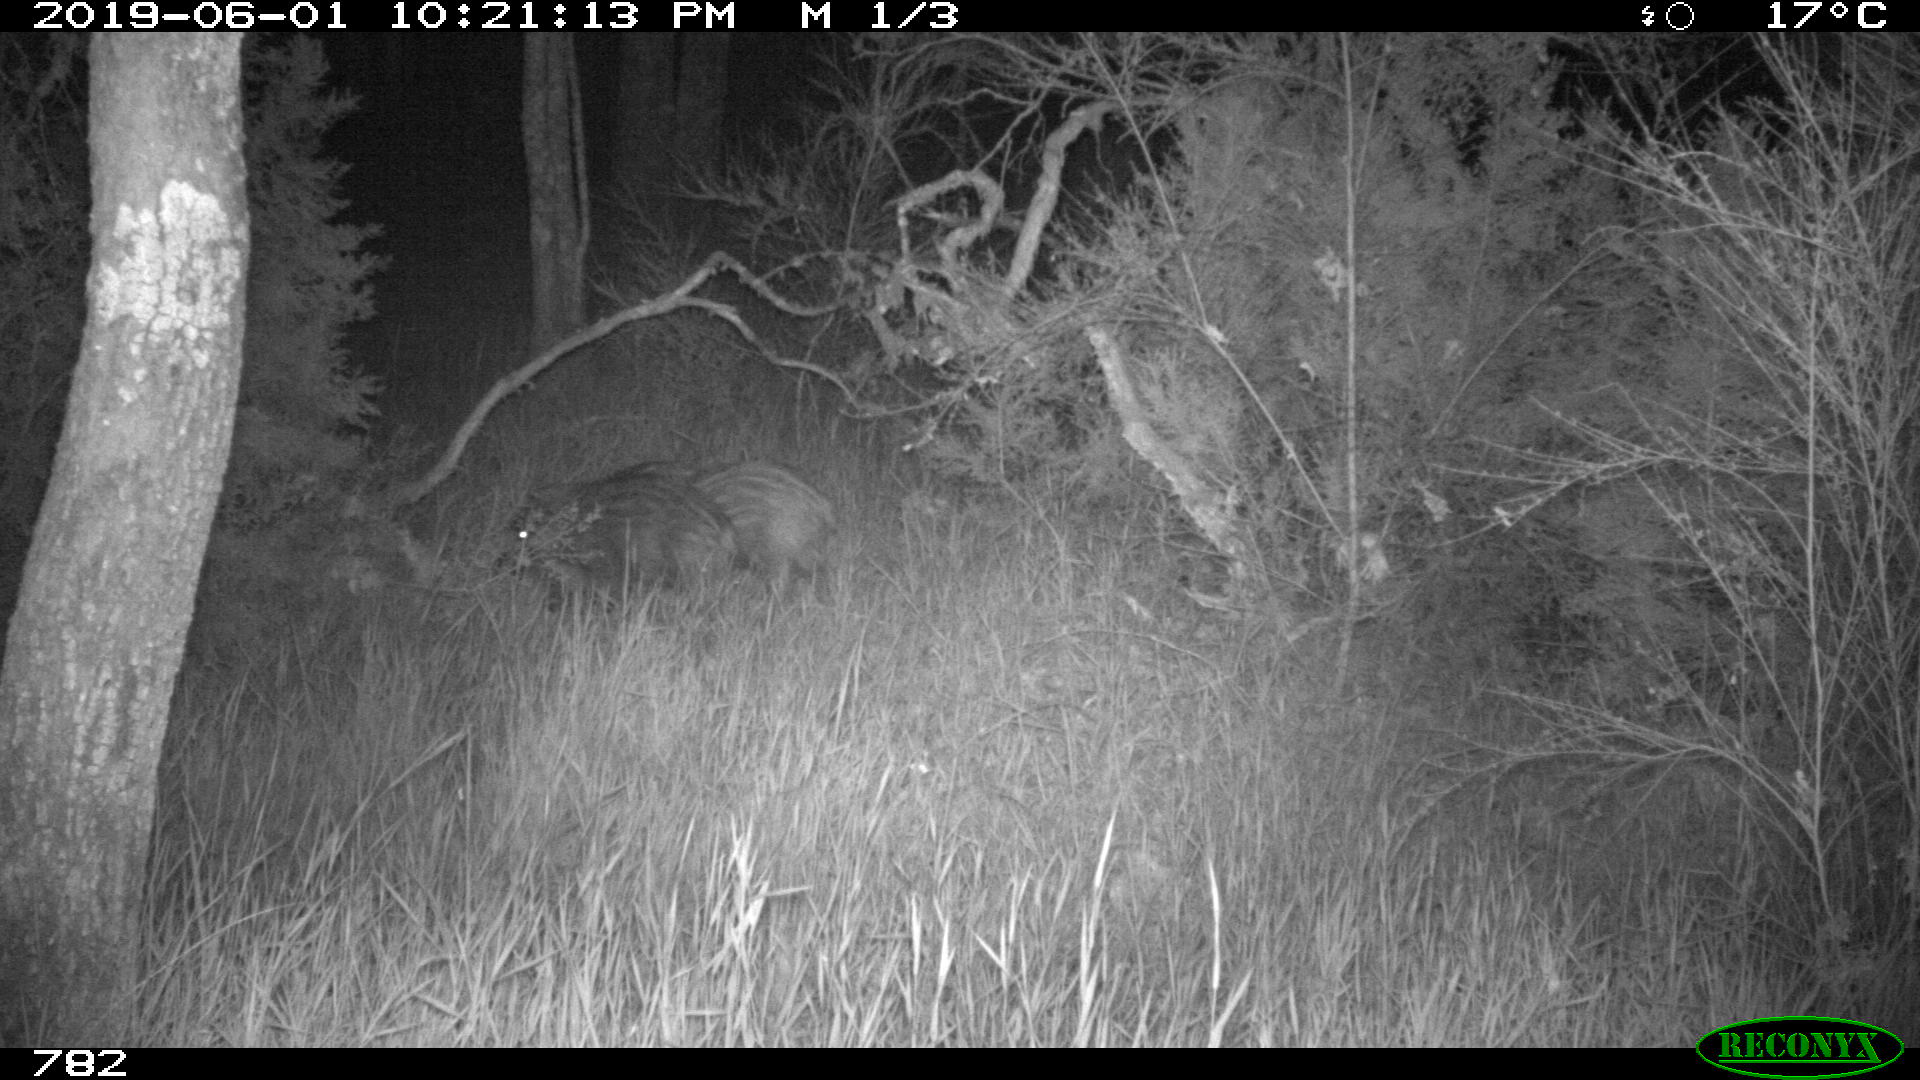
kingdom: Animalia
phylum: Chordata
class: Mammalia
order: Artiodactyla
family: Suidae
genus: Sus
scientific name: Sus scrofa
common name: Wild boar
